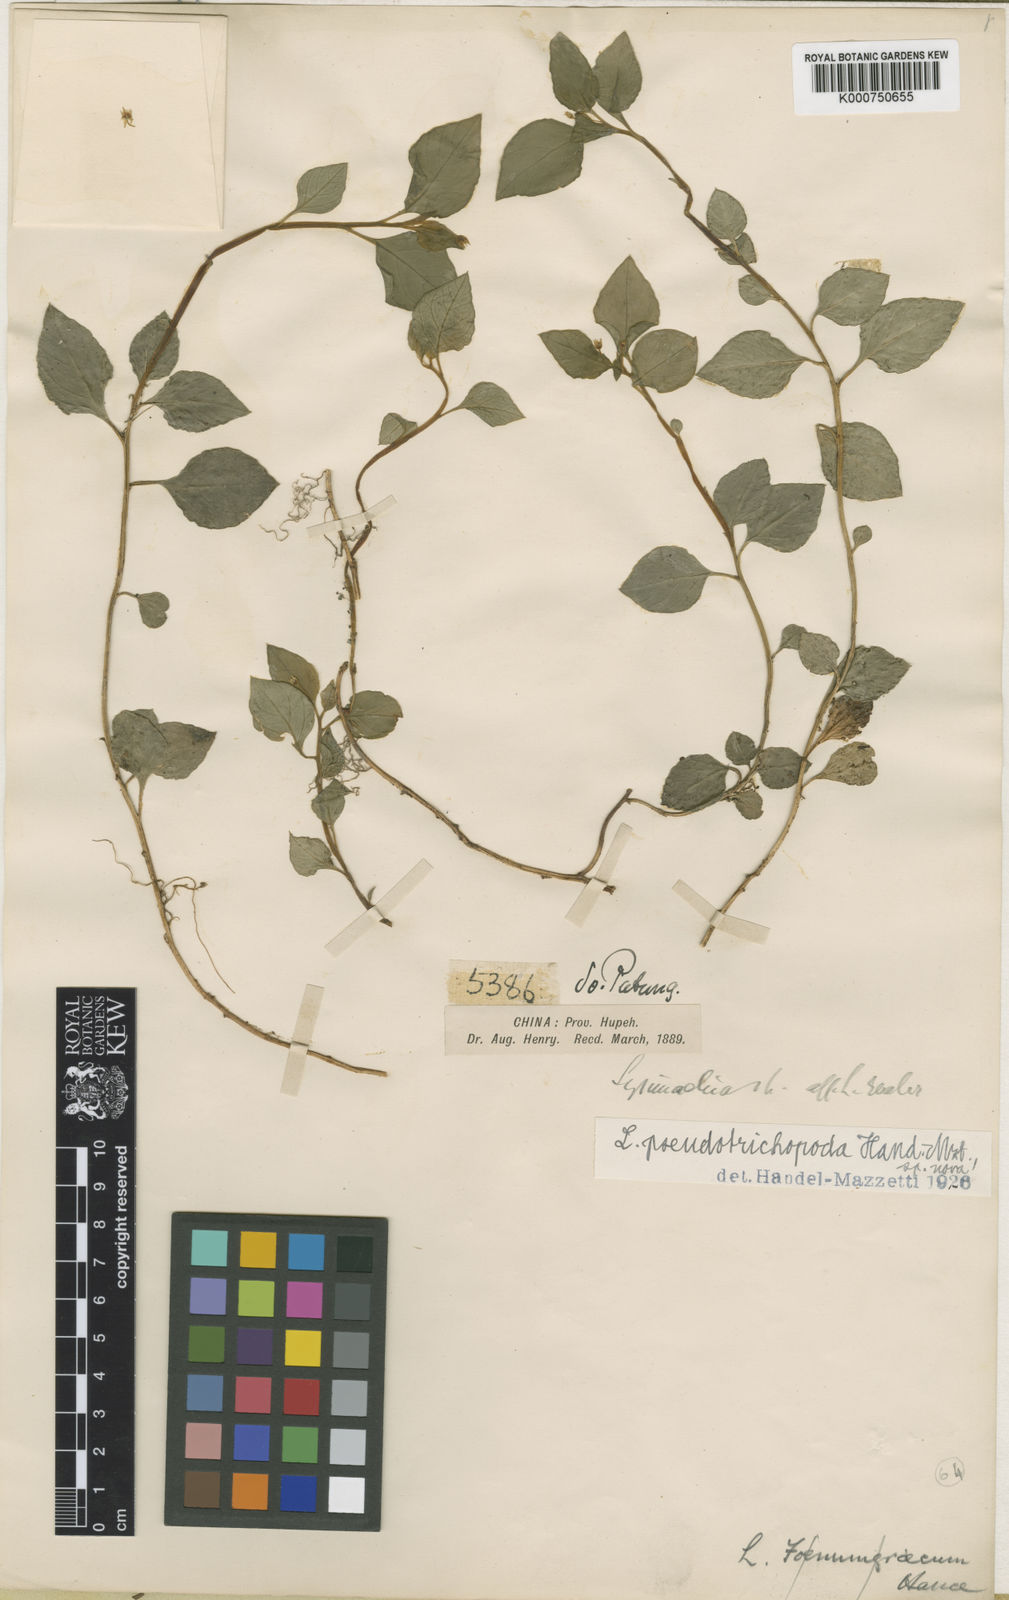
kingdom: Plantae
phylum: Tracheophyta
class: Magnoliopsida
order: Ericales
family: Primulaceae
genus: Lysimachia
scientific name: Lysimachia pseudotrichopoda
